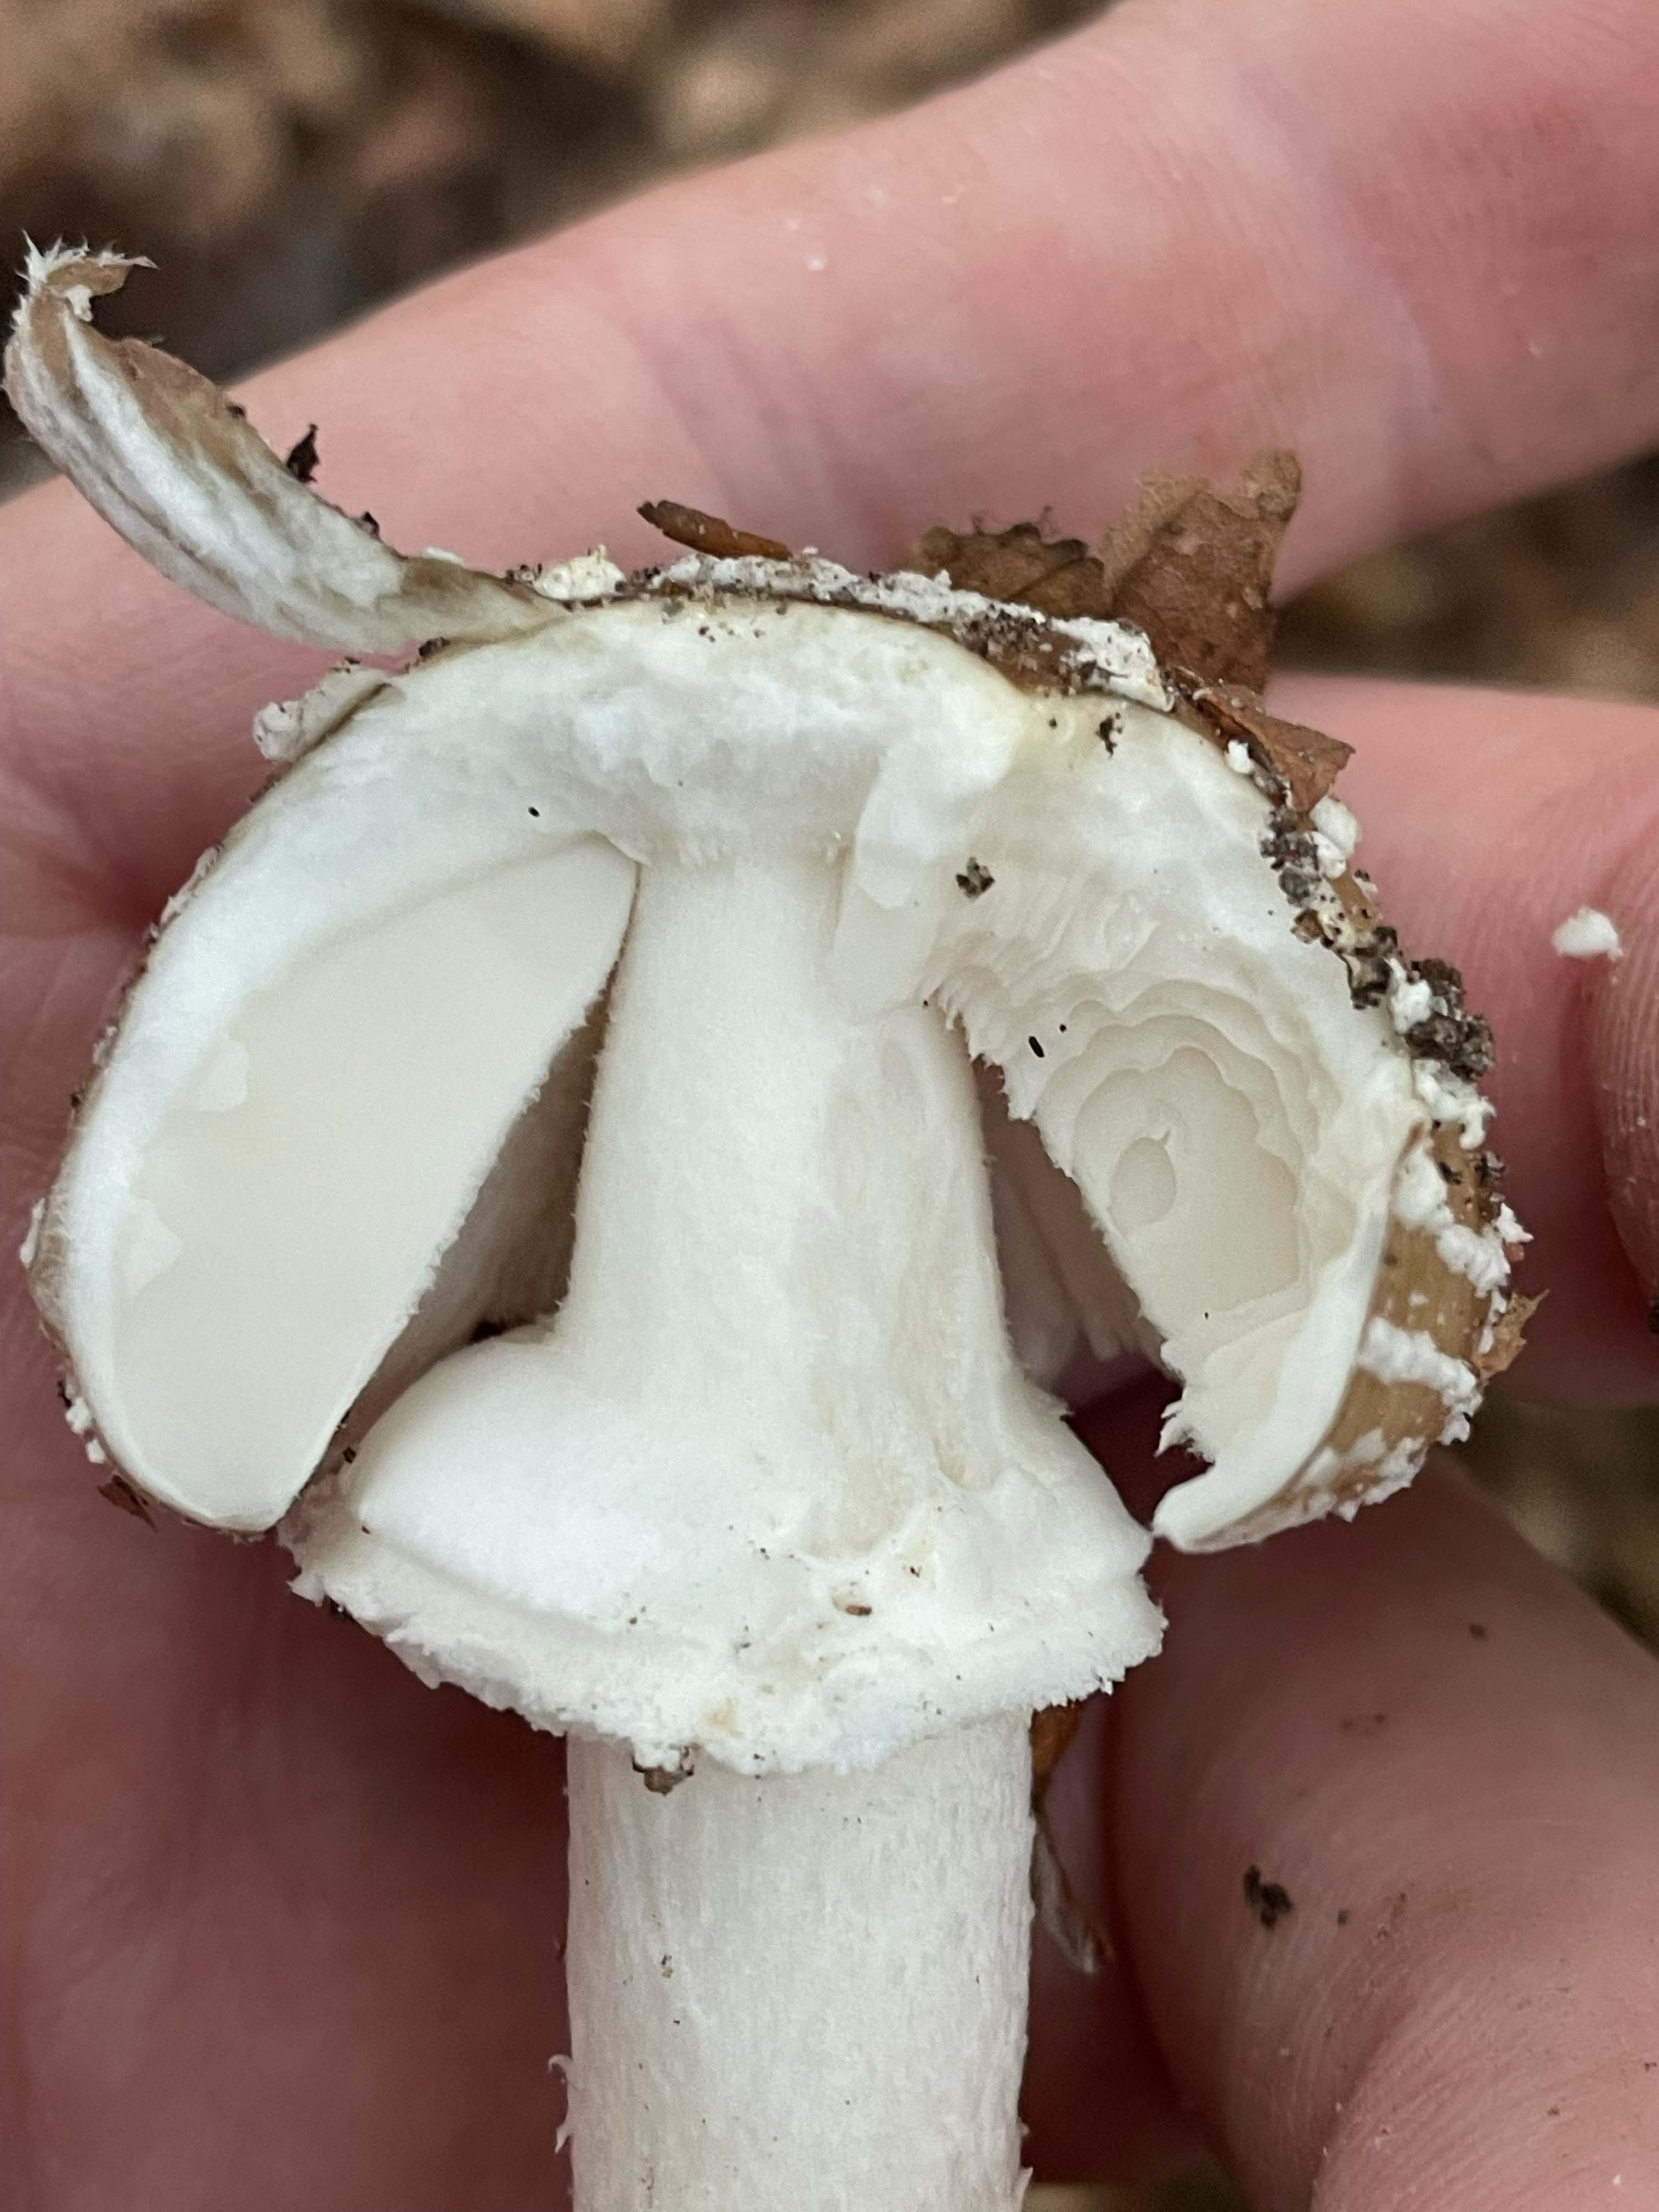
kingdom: Fungi
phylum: Basidiomycota
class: Agaricomycetes
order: Agaricales
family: Amanitaceae
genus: Amanita
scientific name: Amanita pantherina
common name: panter-fluesvamp
